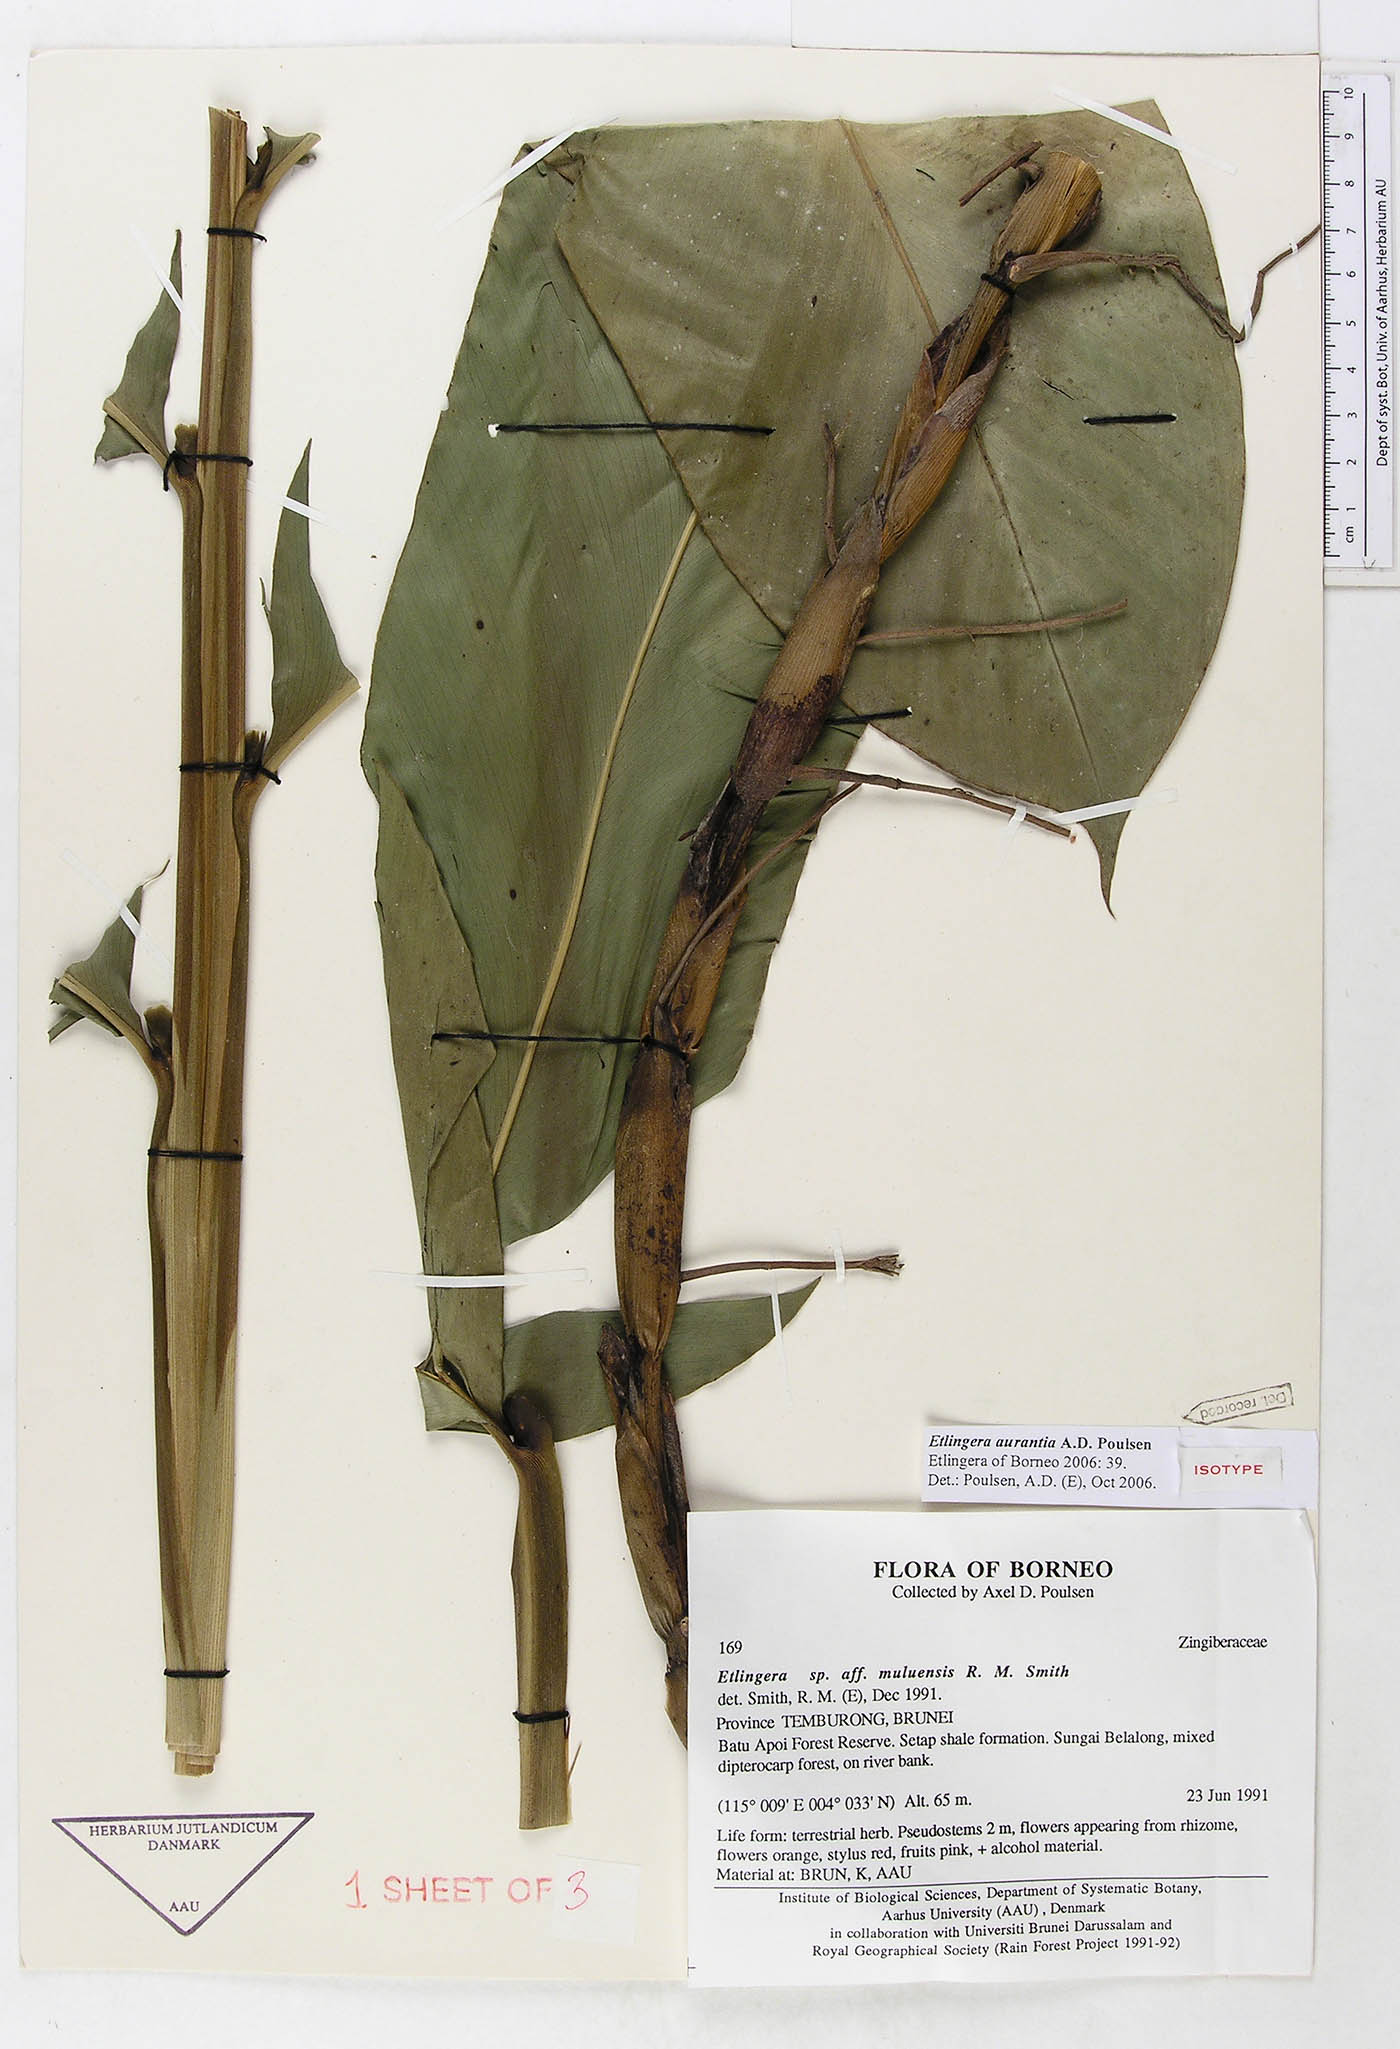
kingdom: Plantae
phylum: Tracheophyta
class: Liliopsida
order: Zingiberales
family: Zingiberaceae
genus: Etlingera
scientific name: Etlingera aurantia
